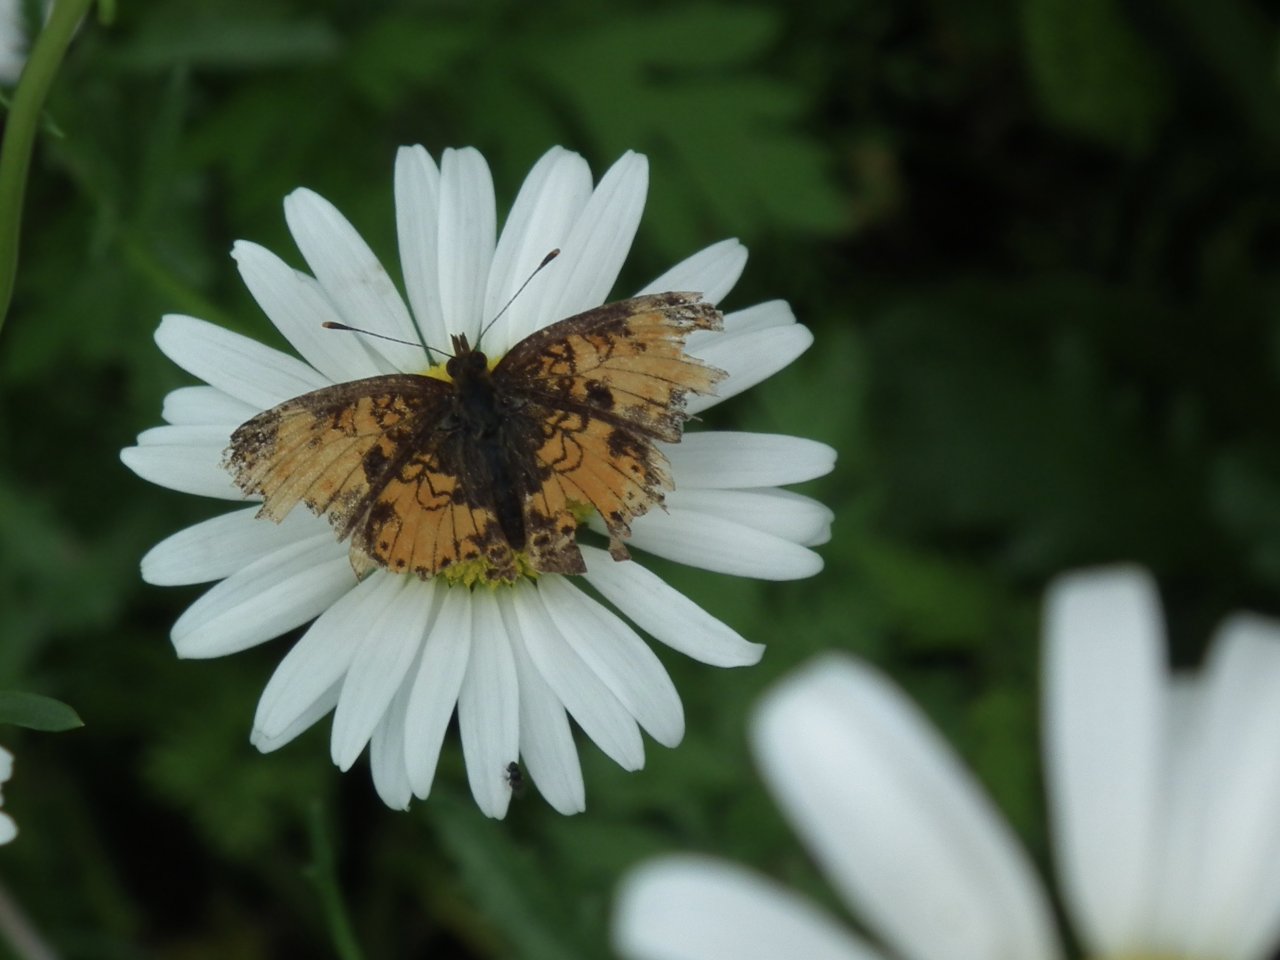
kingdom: Animalia
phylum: Arthropoda
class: Insecta
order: Lepidoptera
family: Nymphalidae
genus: Phyciodes
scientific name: Phyciodes tharos
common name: Northern Crescent
